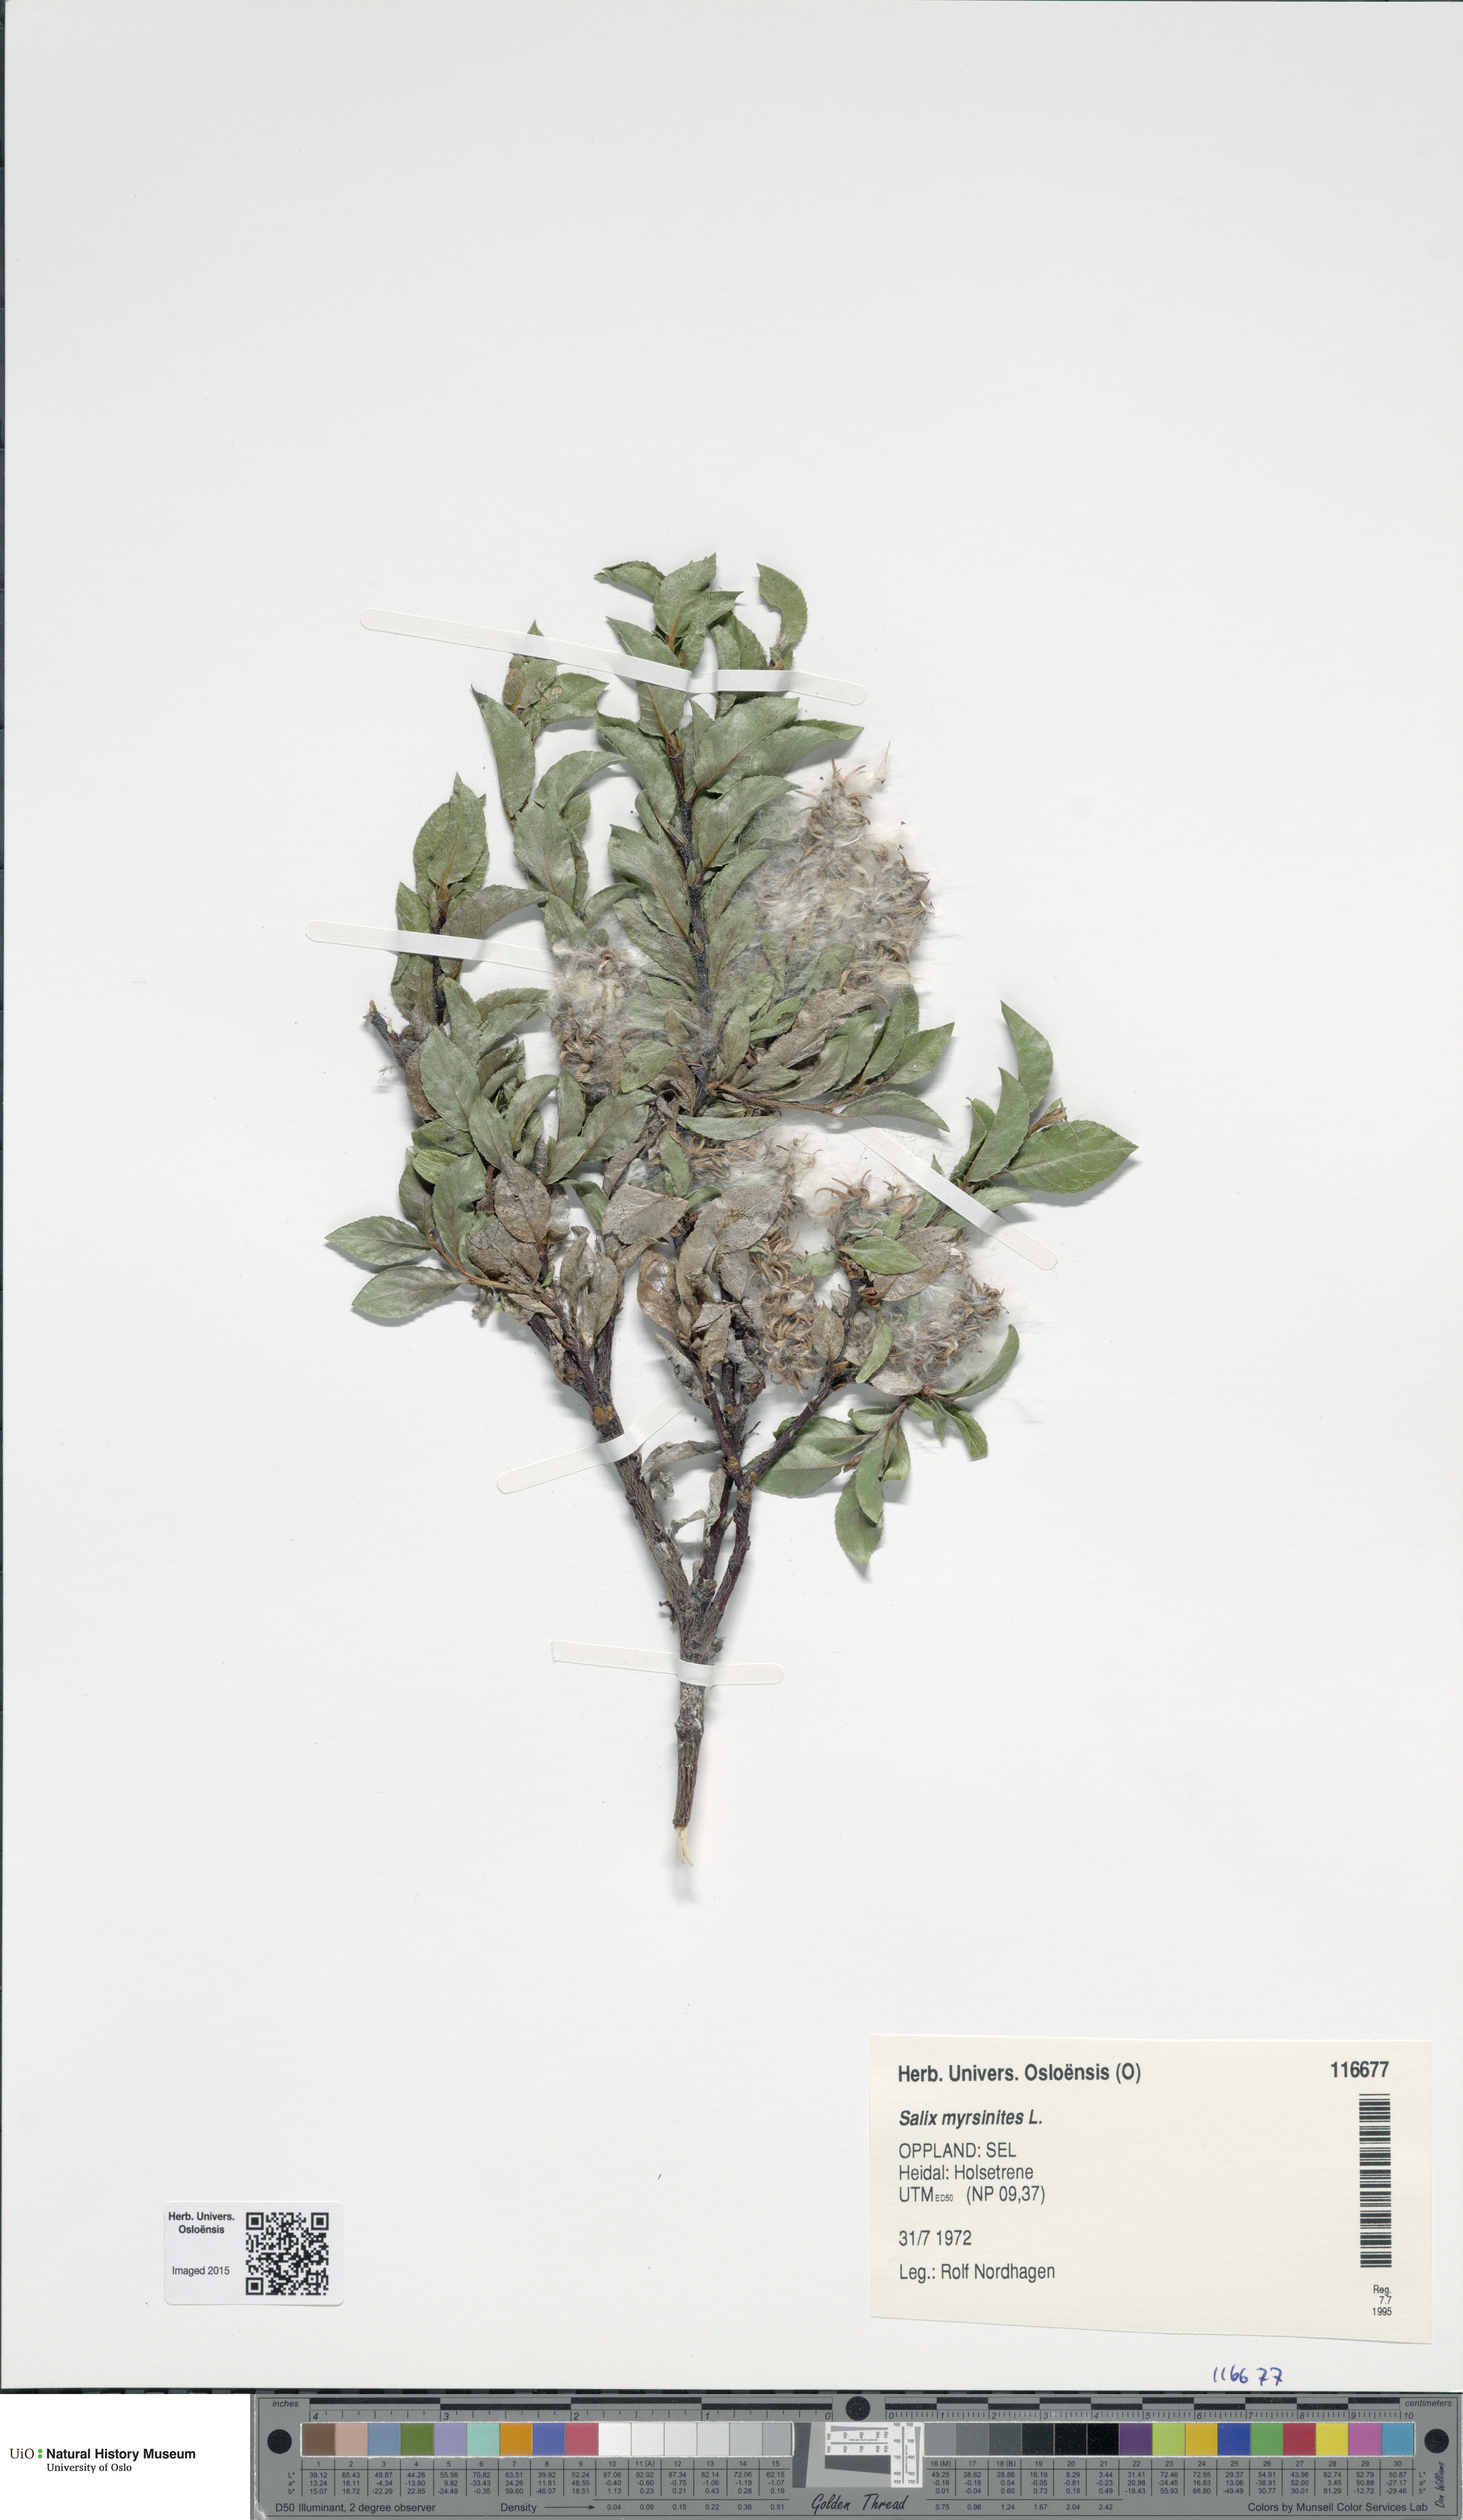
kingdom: Plantae
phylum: Tracheophyta
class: Magnoliopsida
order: Malpighiales
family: Salicaceae
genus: Salix
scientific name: Salix myrsinites
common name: Myrtle willow
